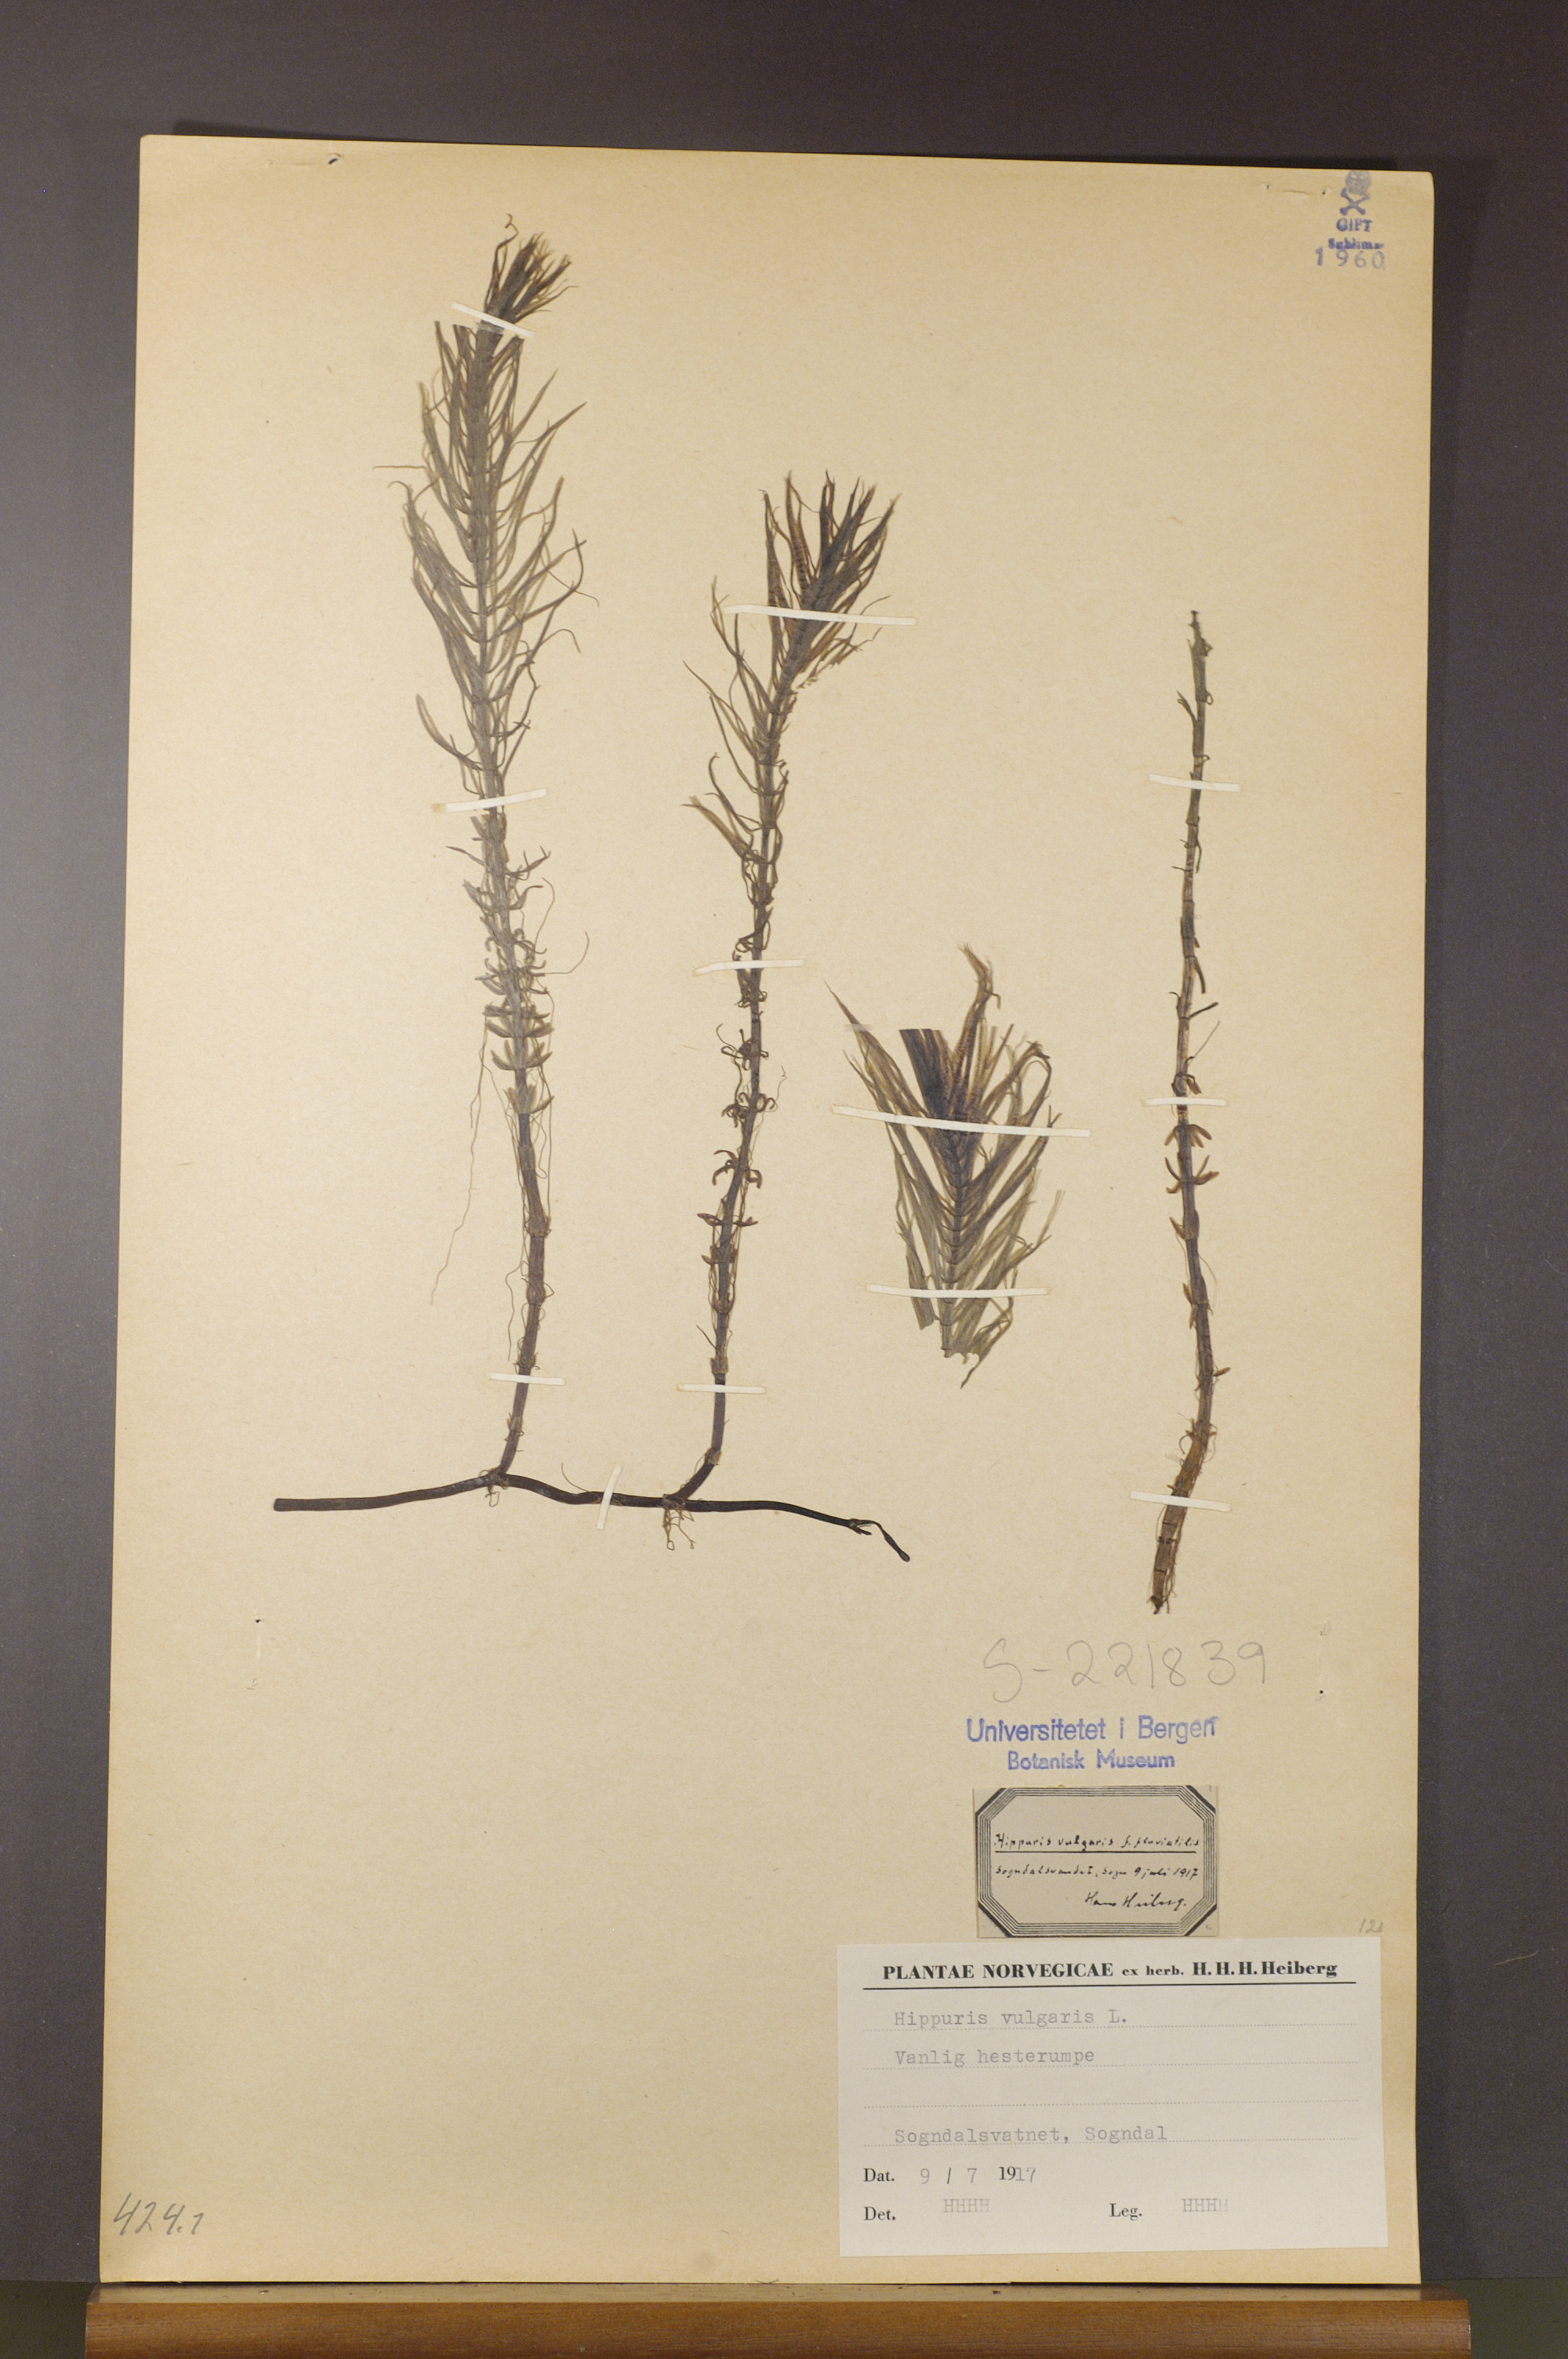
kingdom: Plantae
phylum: Tracheophyta
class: Magnoliopsida
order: Lamiales
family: Plantaginaceae
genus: Hippuris
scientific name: Hippuris vulgaris
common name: Mare's-tail
